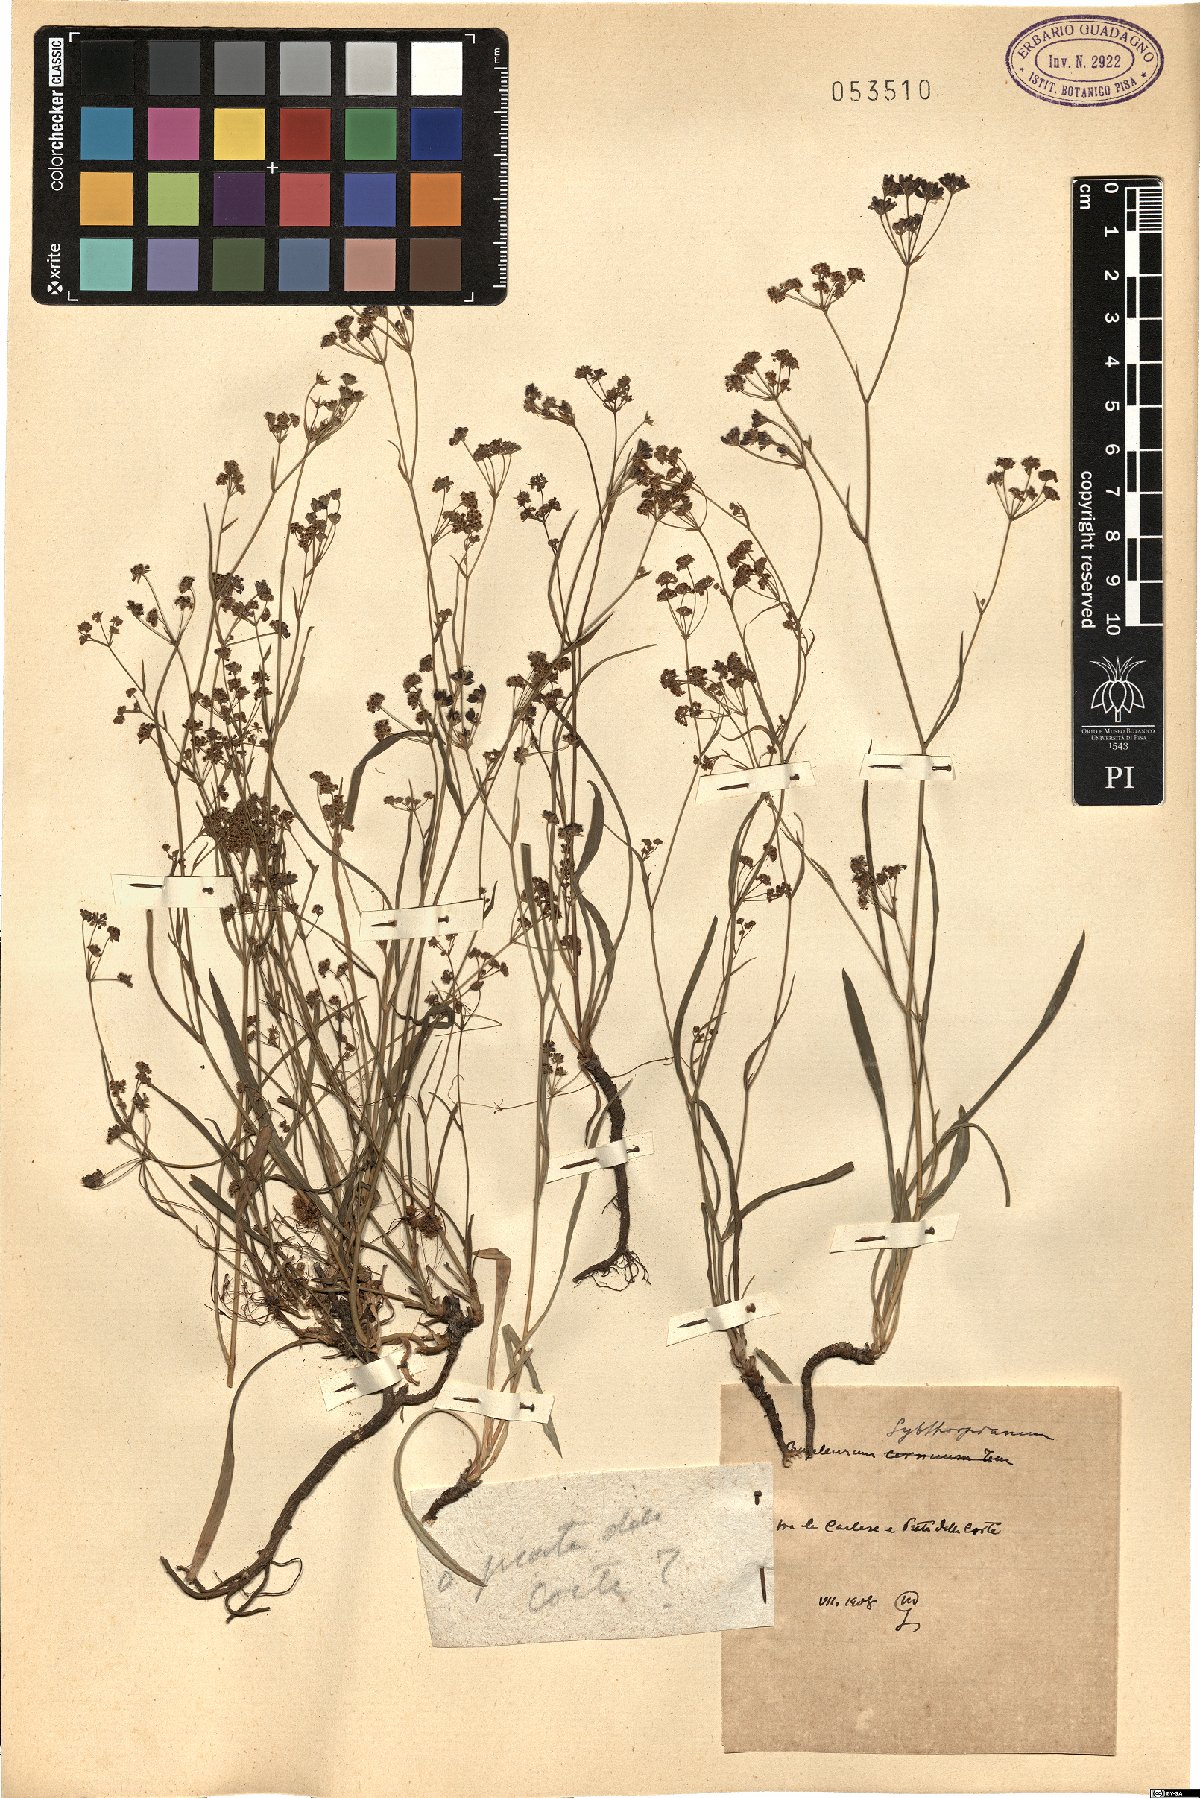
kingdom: Plantae
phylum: Tracheophyta
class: Magnoliopsida
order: Apiales
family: Apiaceae
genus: Bupleurum
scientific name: Bupleurum falcatum
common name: Sickle-leaved hare's-ear
